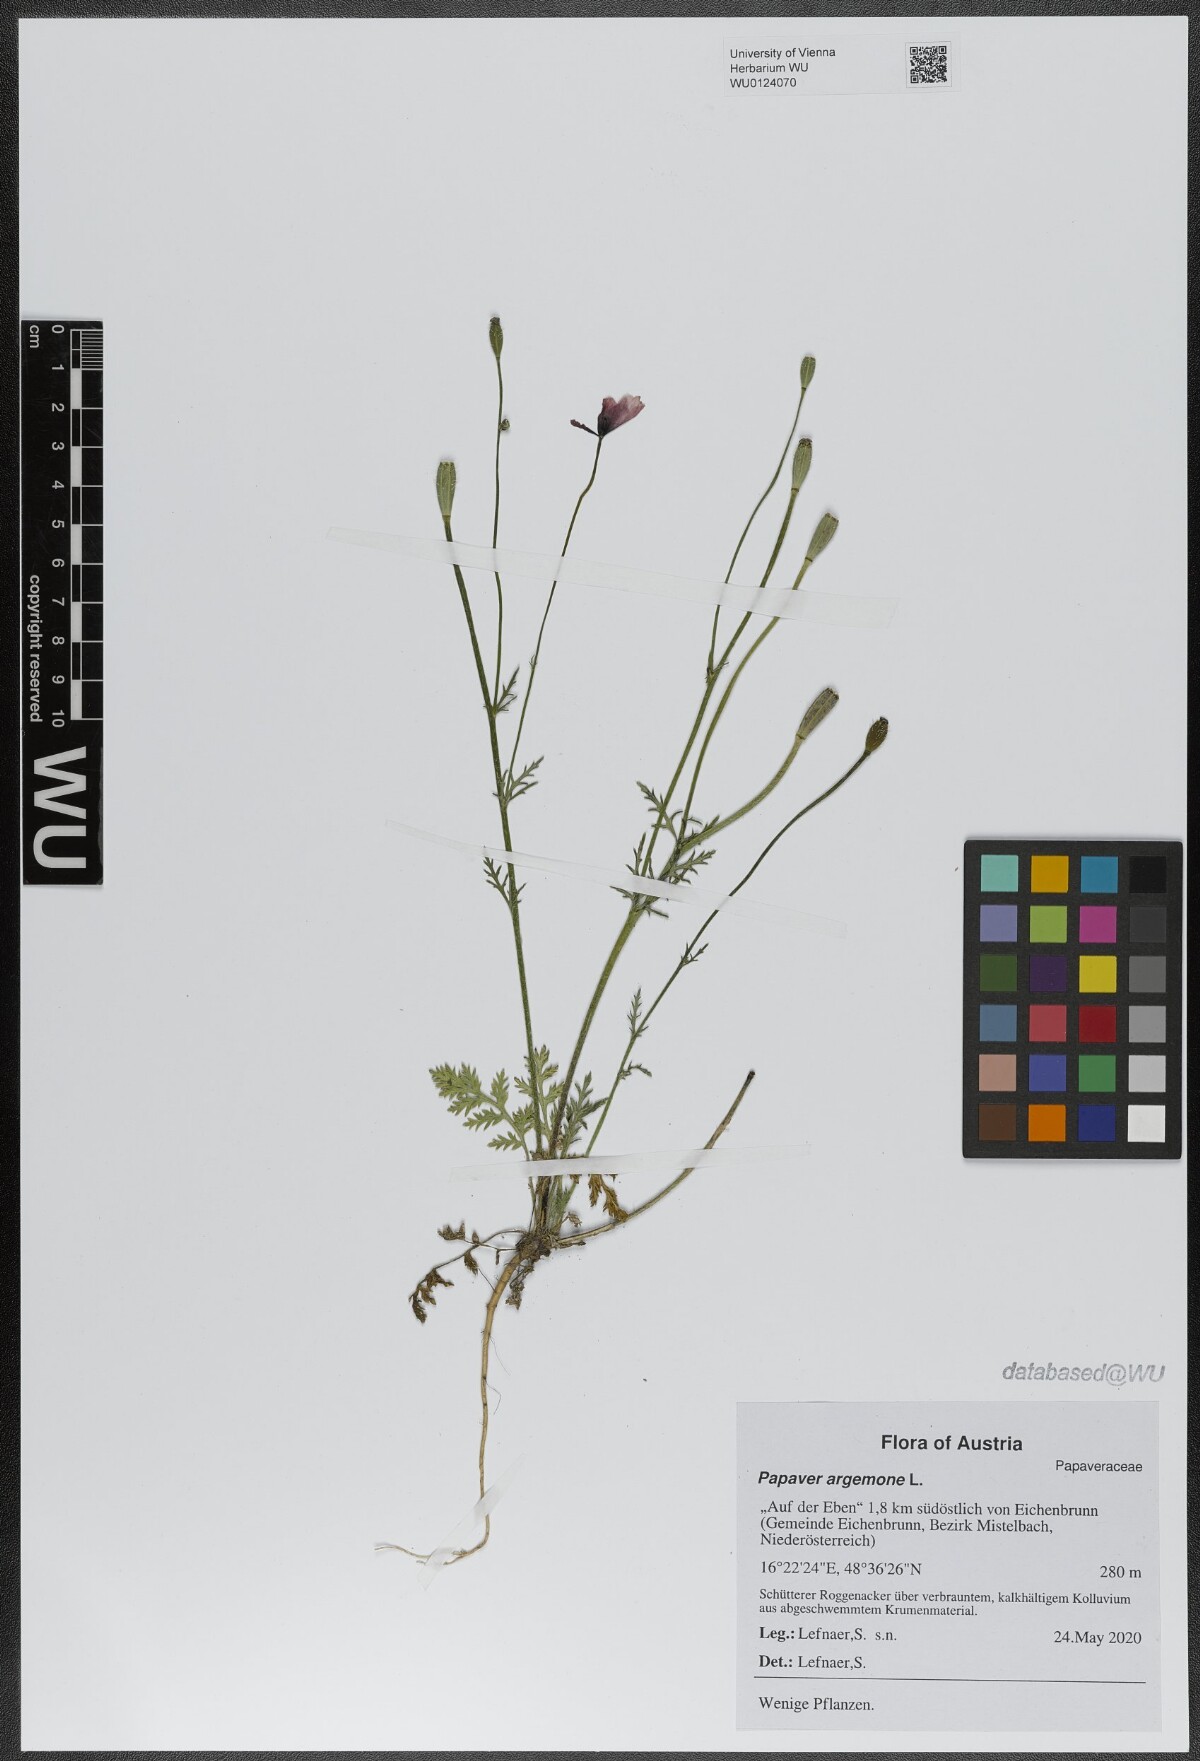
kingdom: Plantae
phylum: Tracheophyta
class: Magnoliopsida
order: Ranunculales
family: Papaveraceae
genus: Roemeria
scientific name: Roemeria argemone
